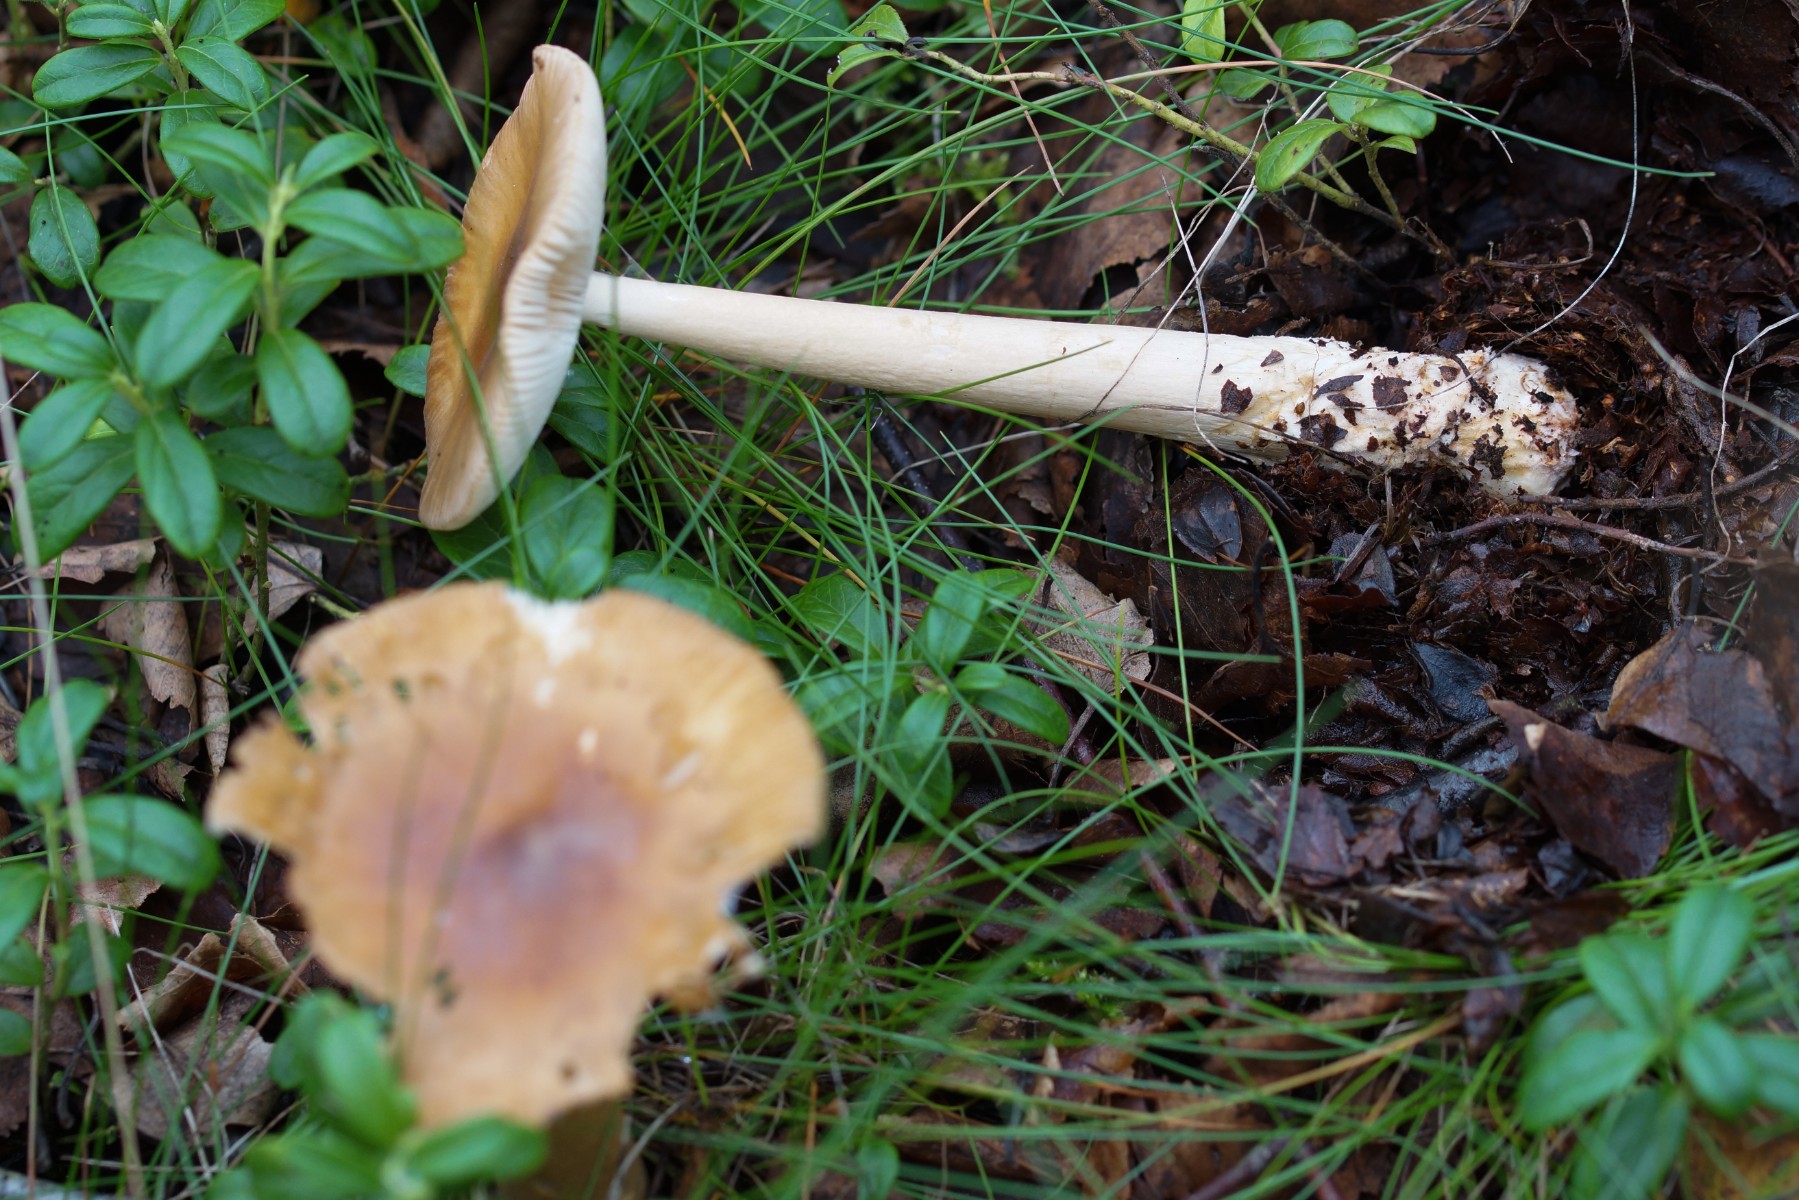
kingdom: Fungi
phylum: Basidiomycota
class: Agaricomycetes
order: Agaricales
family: Amanitaceae
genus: Amanita
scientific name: Amanita fulva
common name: brun kam-fluesvamp
